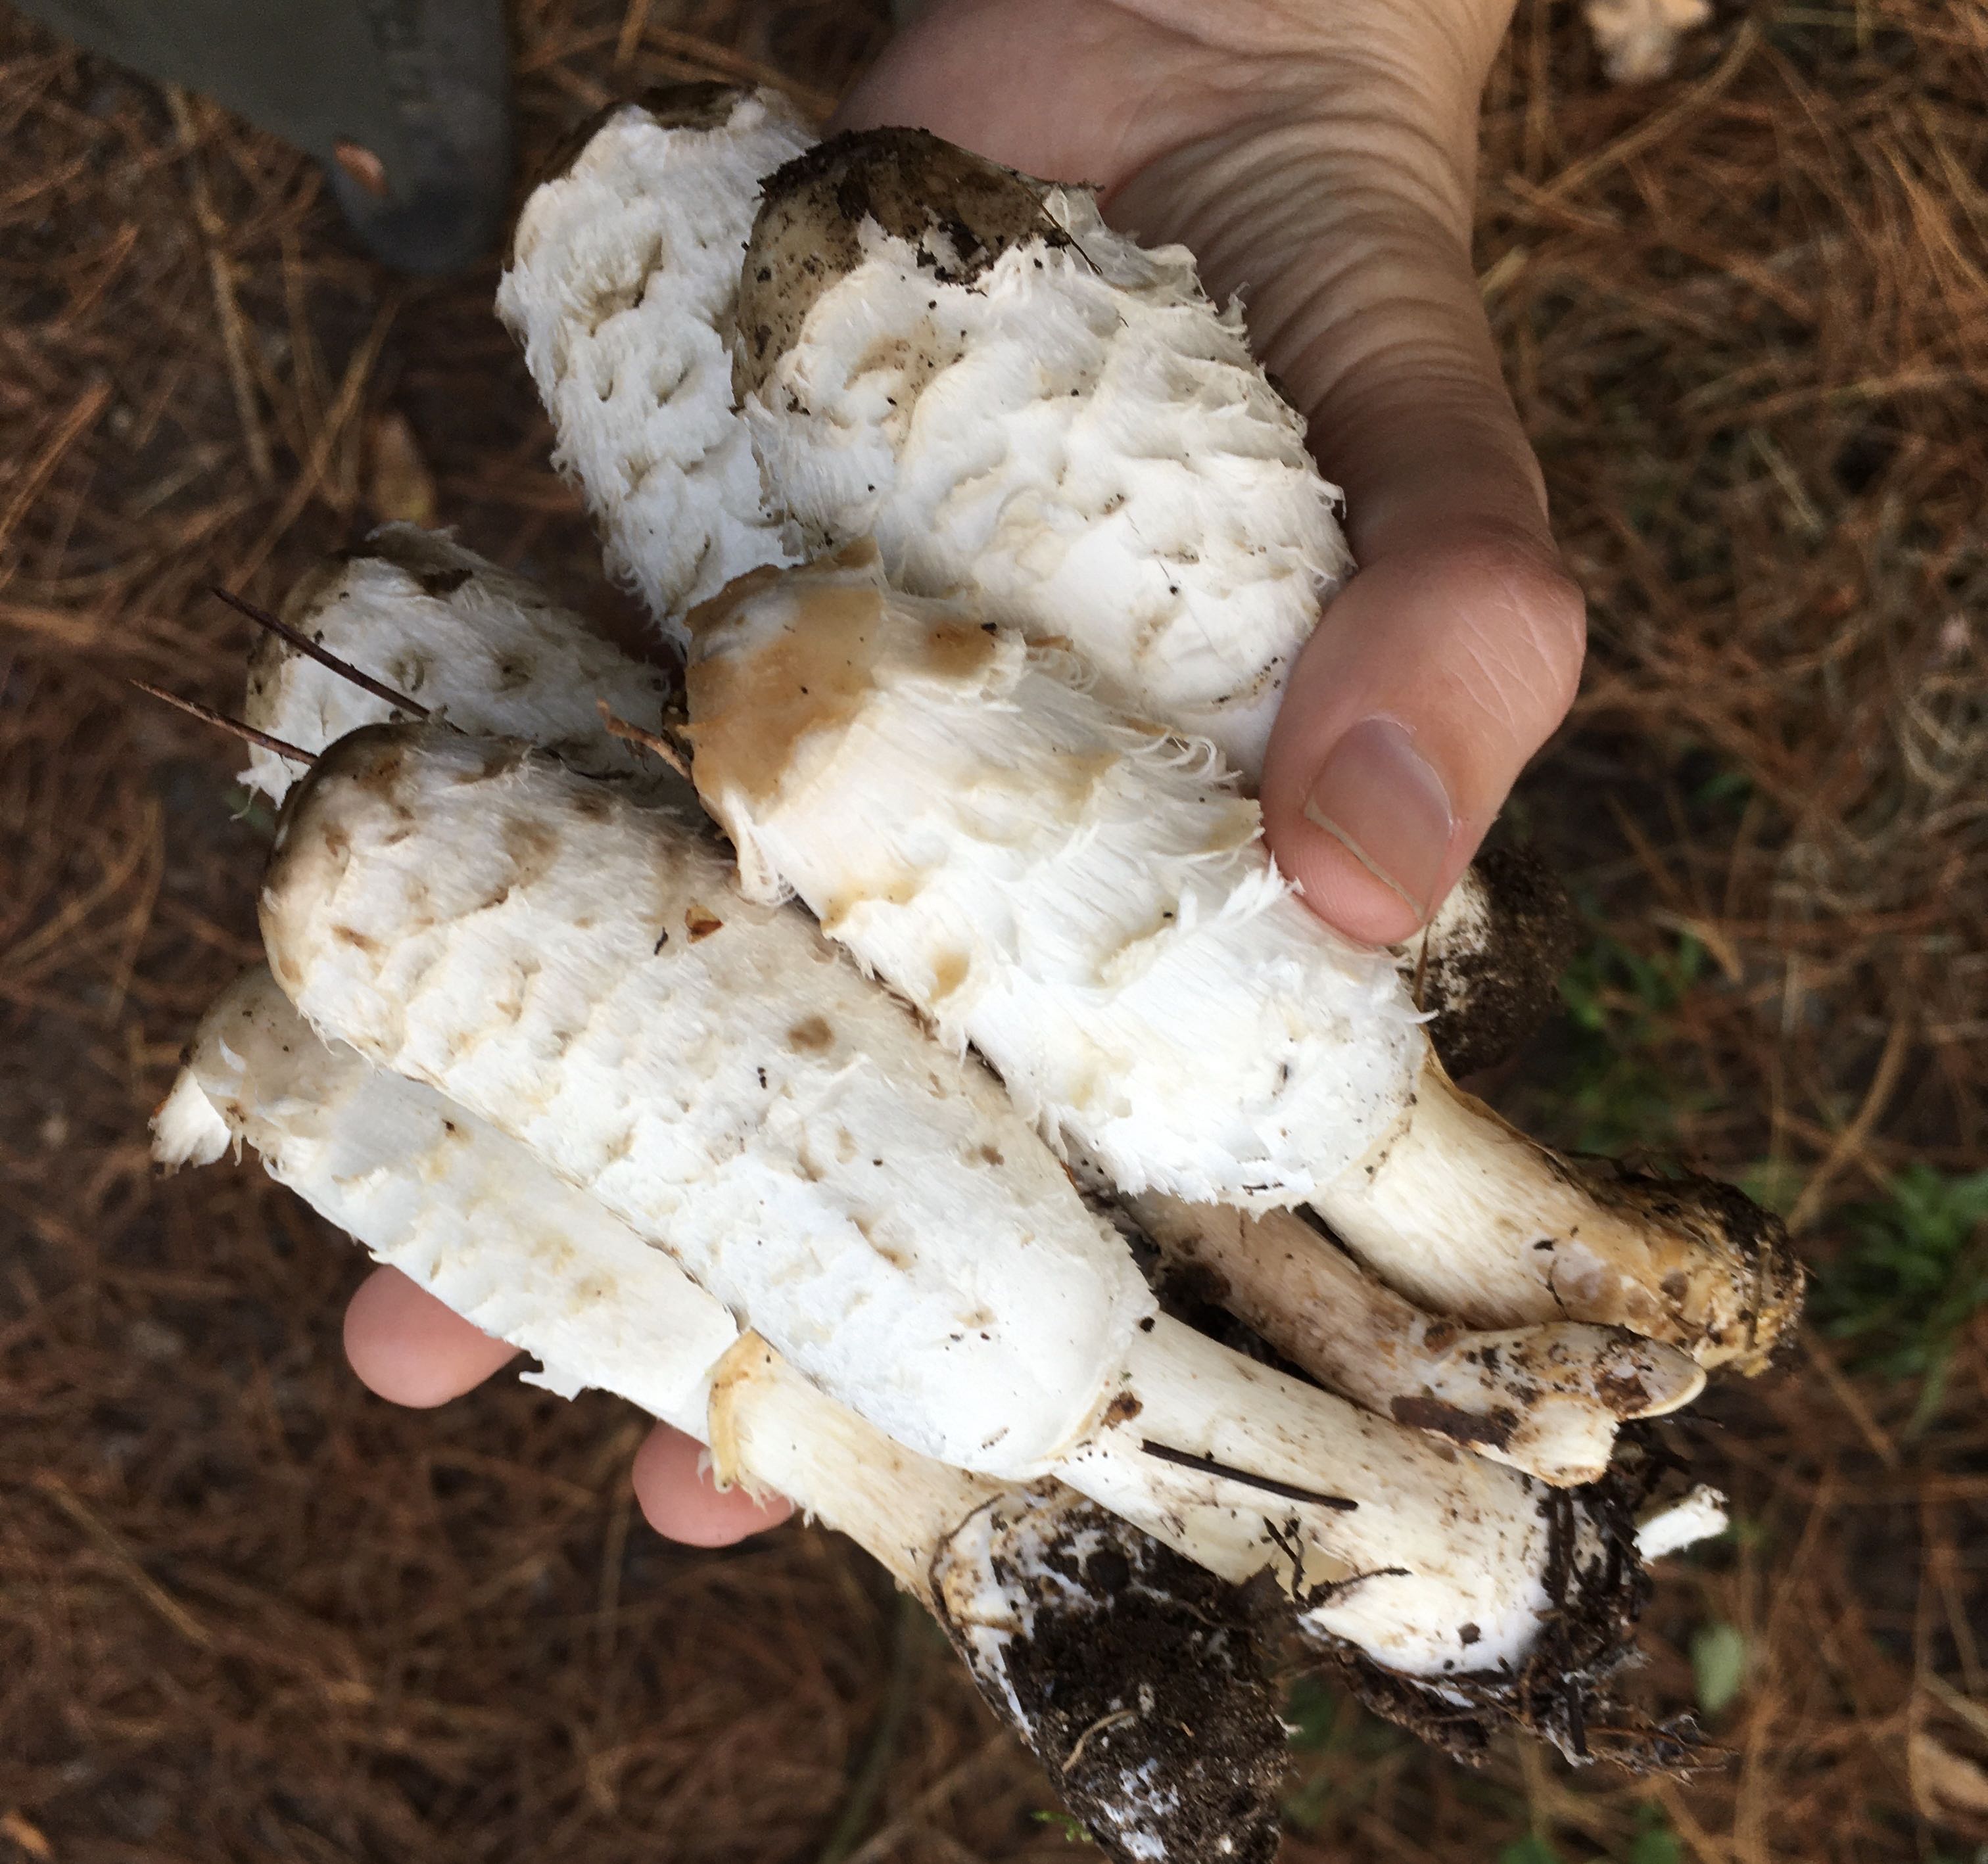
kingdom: Fungi
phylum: Basidiomycota
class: Agaricomycetes
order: Agaricales
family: Agaricaceae
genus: Coprinus
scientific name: Coprinus comatus
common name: stor parykhat
